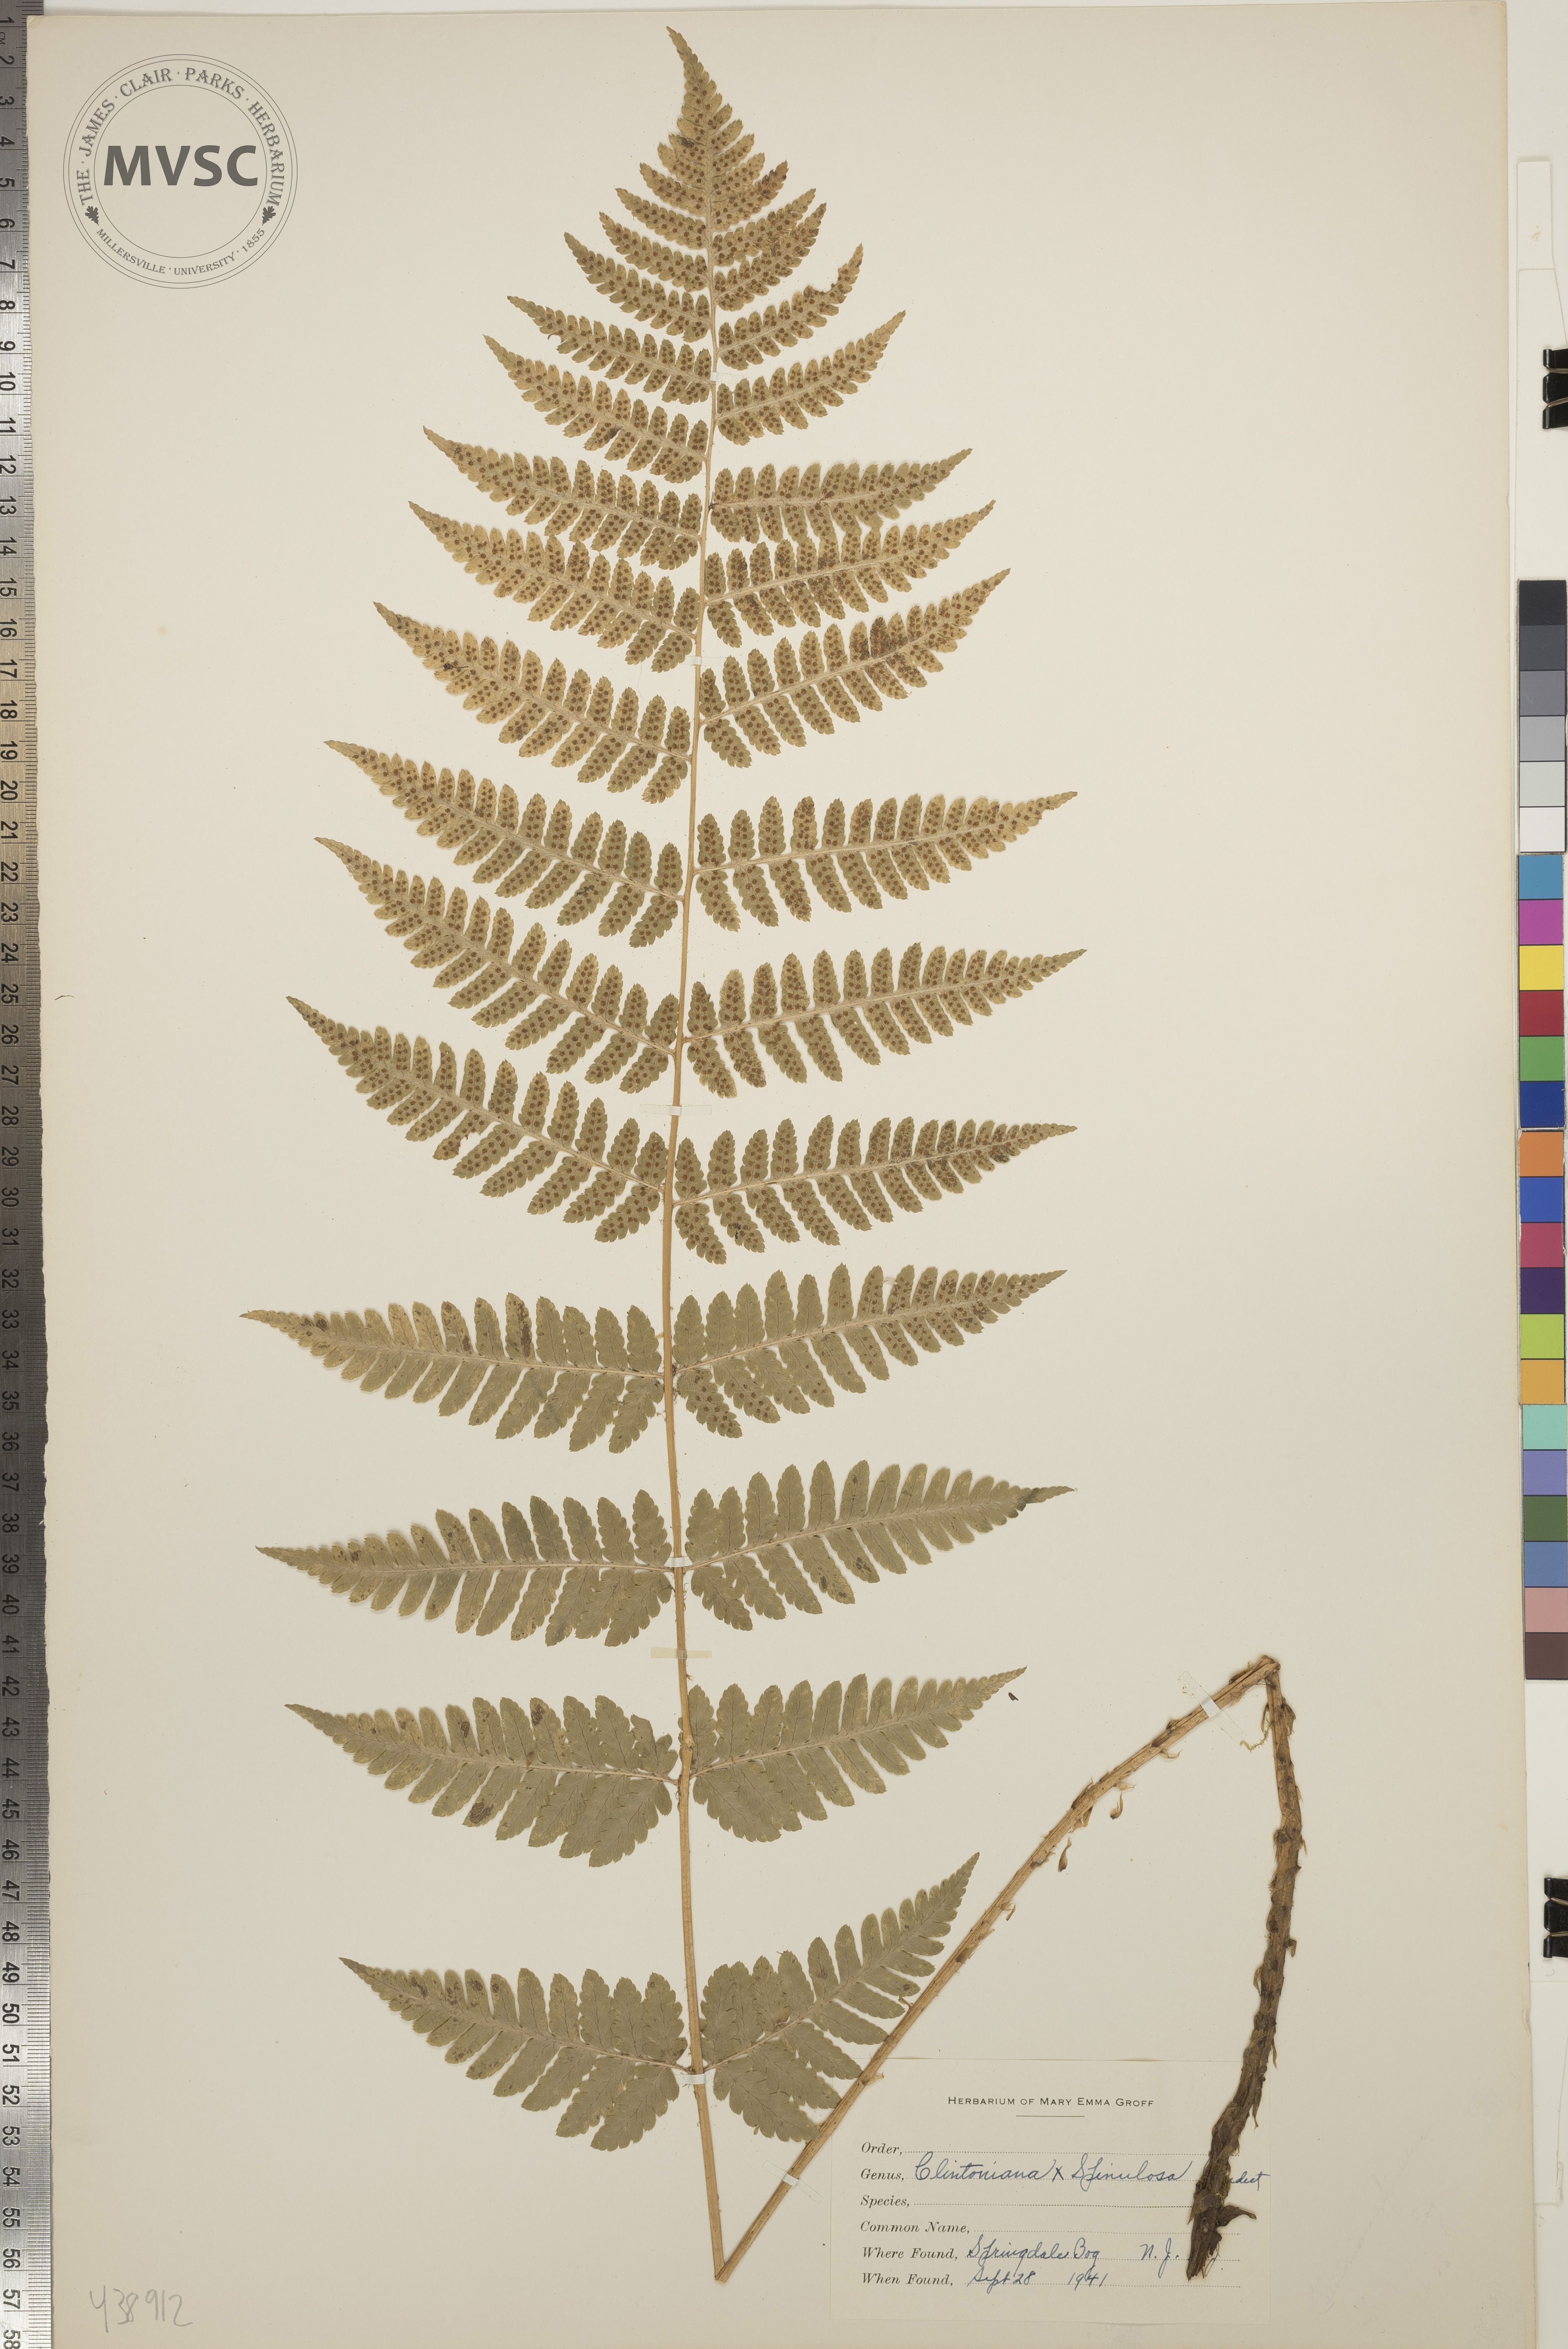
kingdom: Plantae
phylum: Tracheophyta
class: Polypodiopsida
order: Polypodiales
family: Dryopteridaceae
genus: Dryopteris
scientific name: Dryopteris
